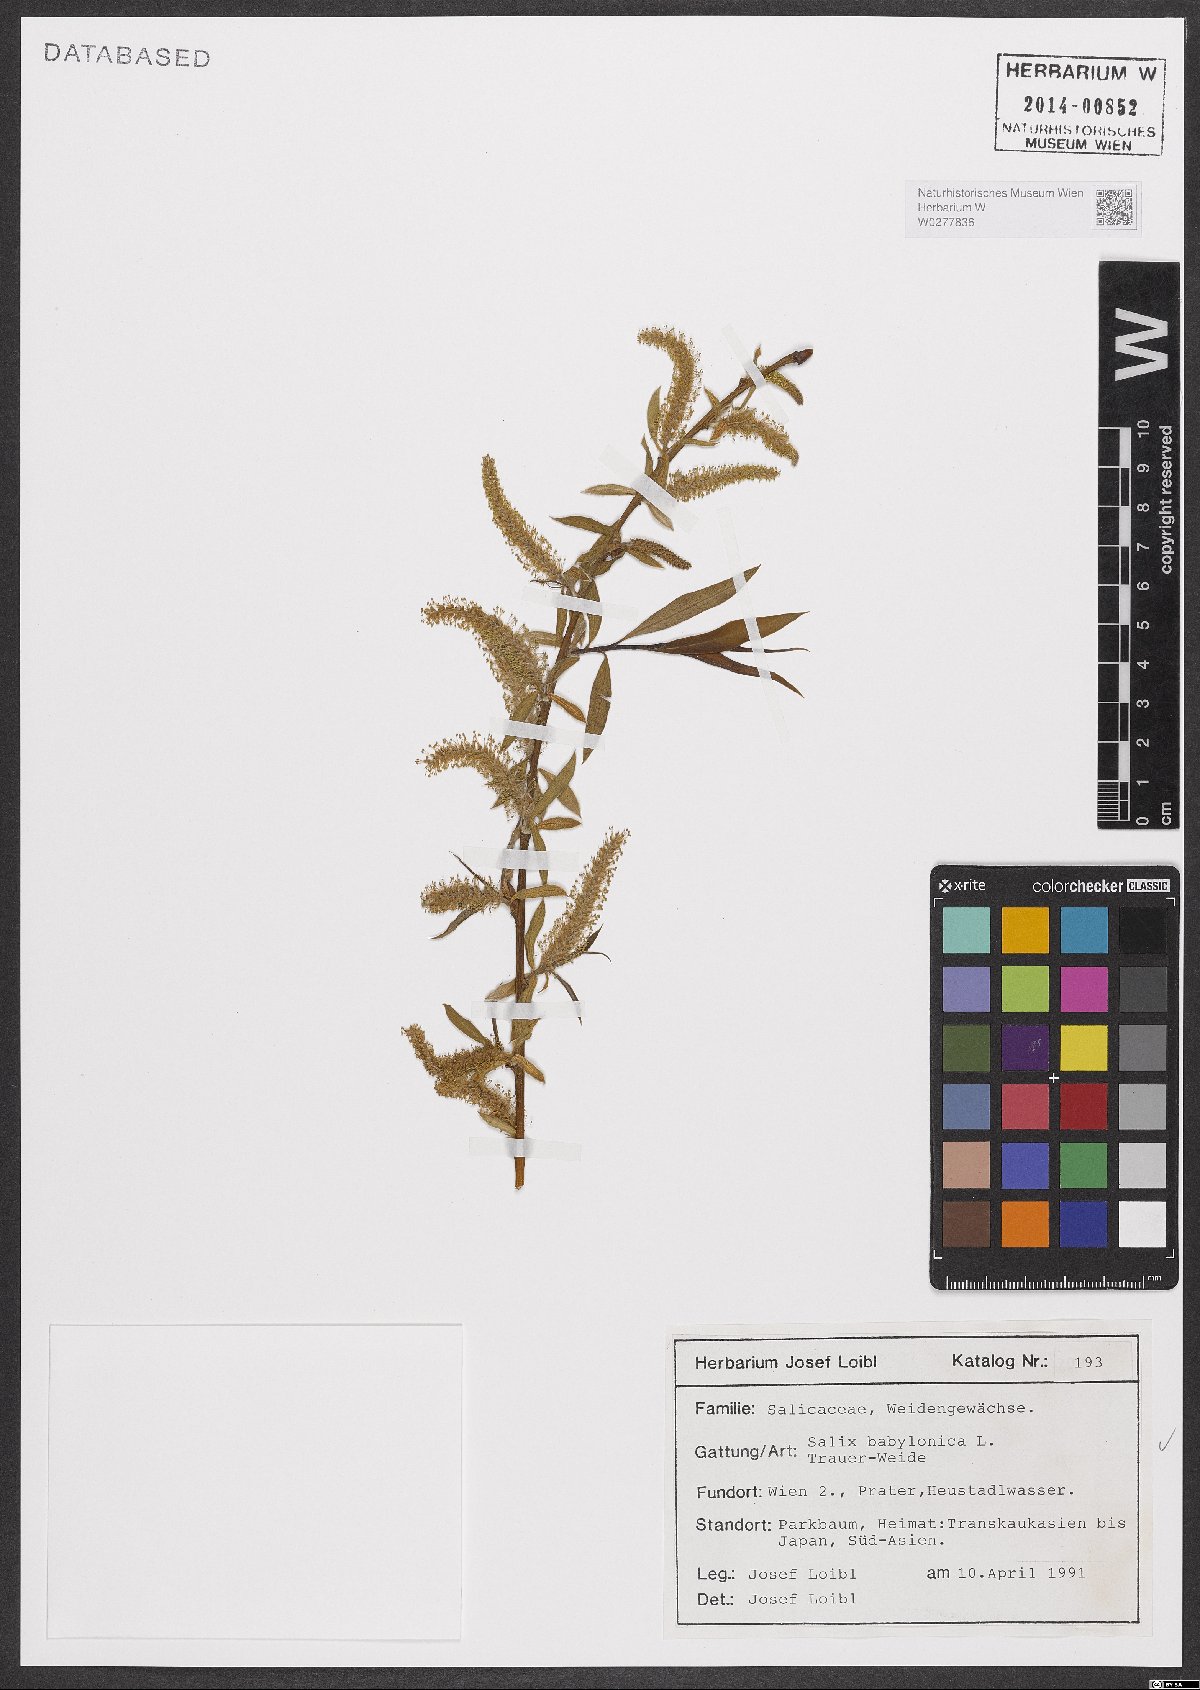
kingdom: Plantae
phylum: Tracheophyta
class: Magnoliopsida
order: Malpighiales
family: Salicaceae
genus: Salix
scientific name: Salix babylonica
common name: Weeping willow
